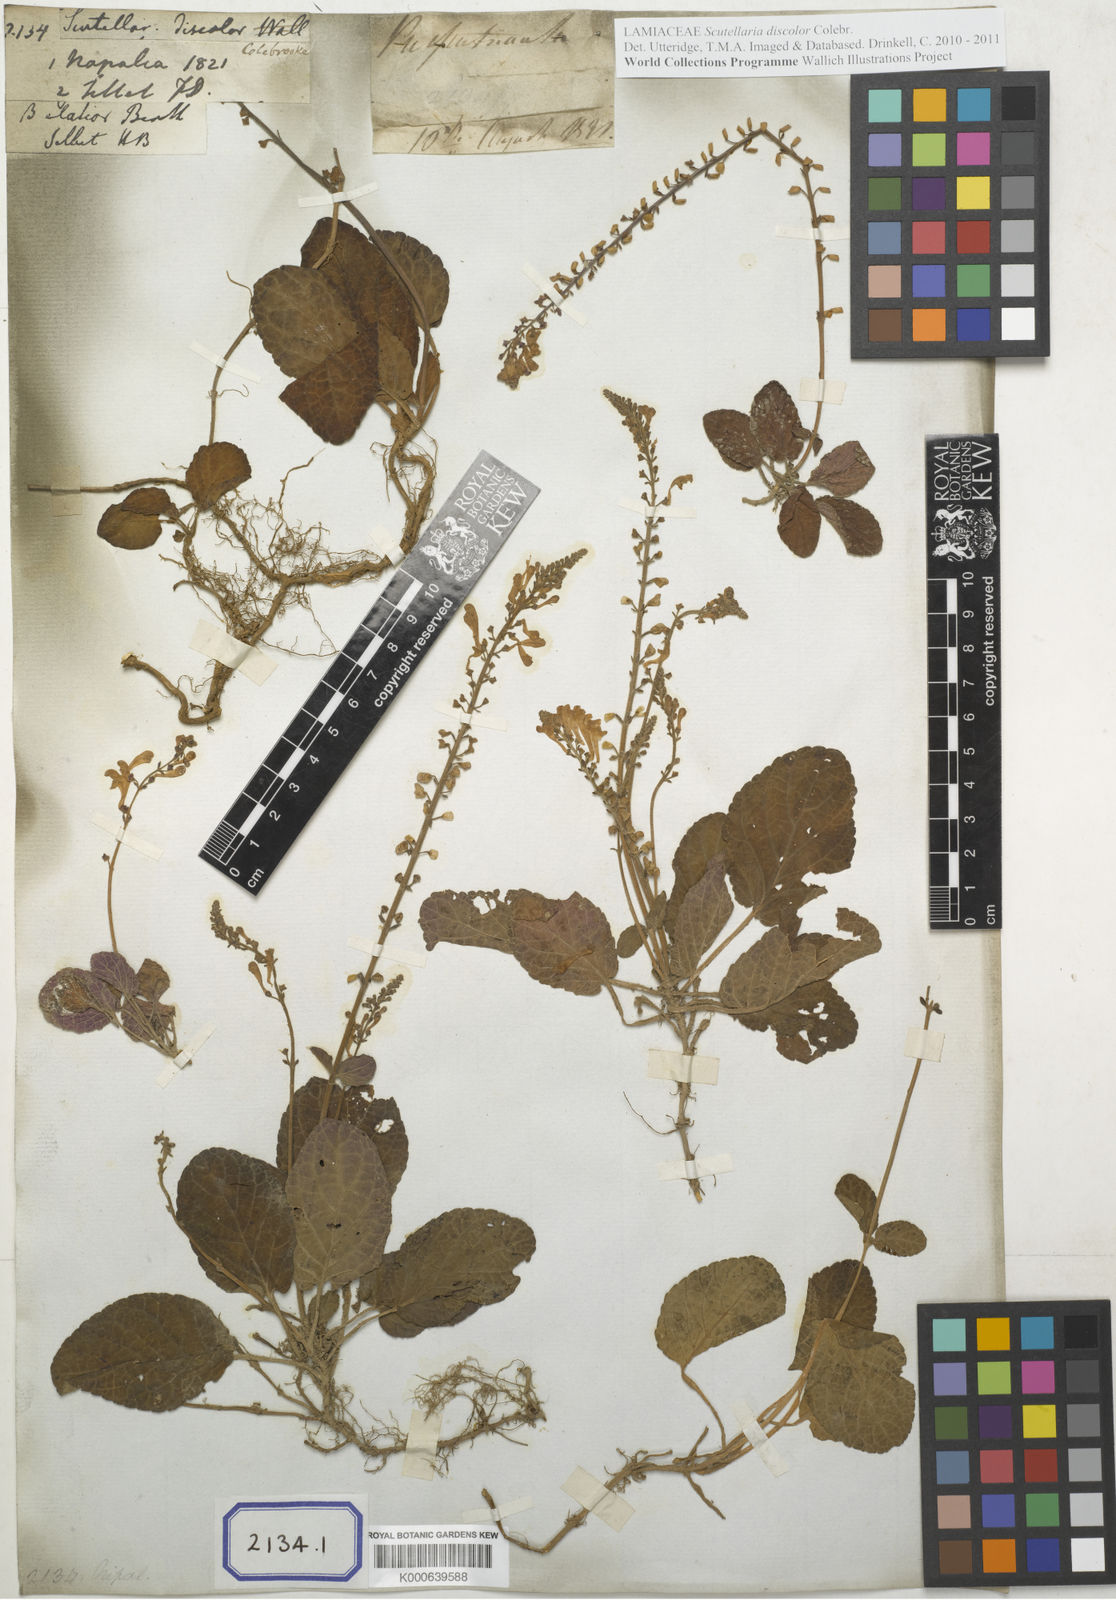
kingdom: Plantae
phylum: Tracheophyta
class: Magnoliopsida
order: Lamiales
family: Lamiaceae
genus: Scutellaria
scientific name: Scutellaria
